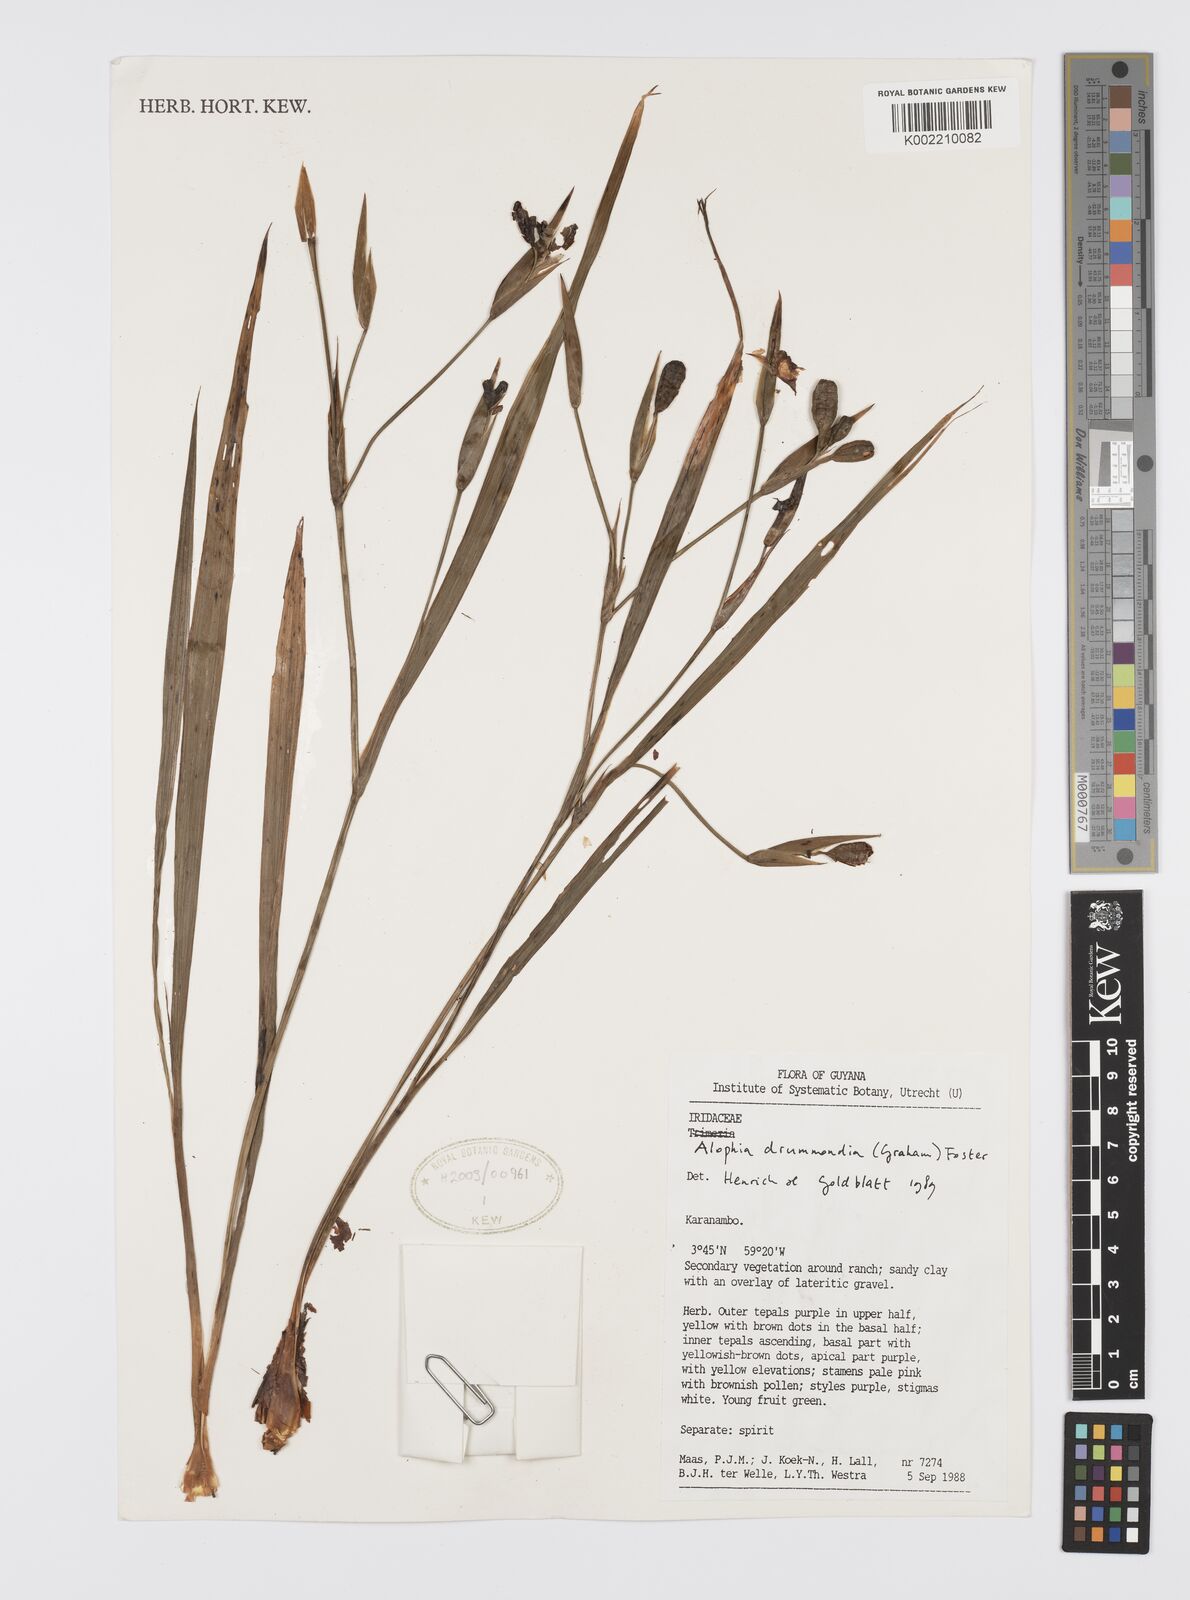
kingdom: Plantae
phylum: Tracheophyta
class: Liliopsida
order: Asparagales
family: Iridaceae
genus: Alophia
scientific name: Alophia drummondii
